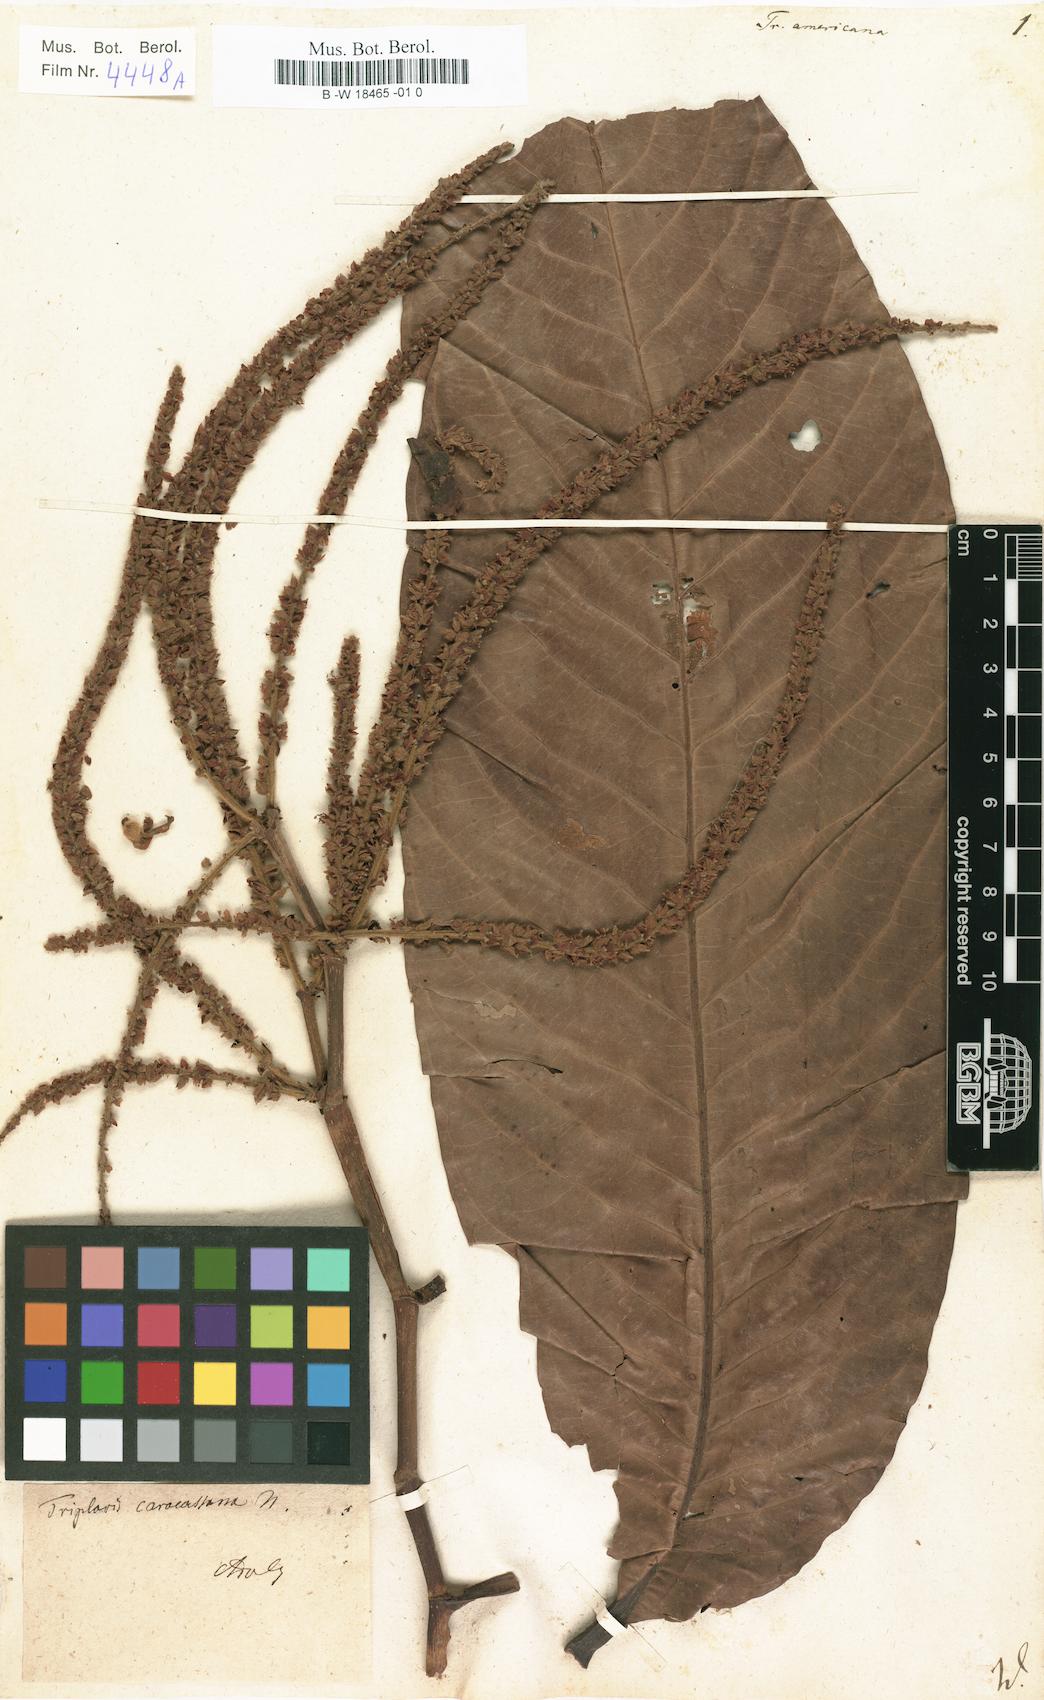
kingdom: Plantae
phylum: Tracheophyta
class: Magnoliopsida
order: Caryophyllales
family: Polygonaceae
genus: Triplaris
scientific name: Triplaris americana
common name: Ant-tree
